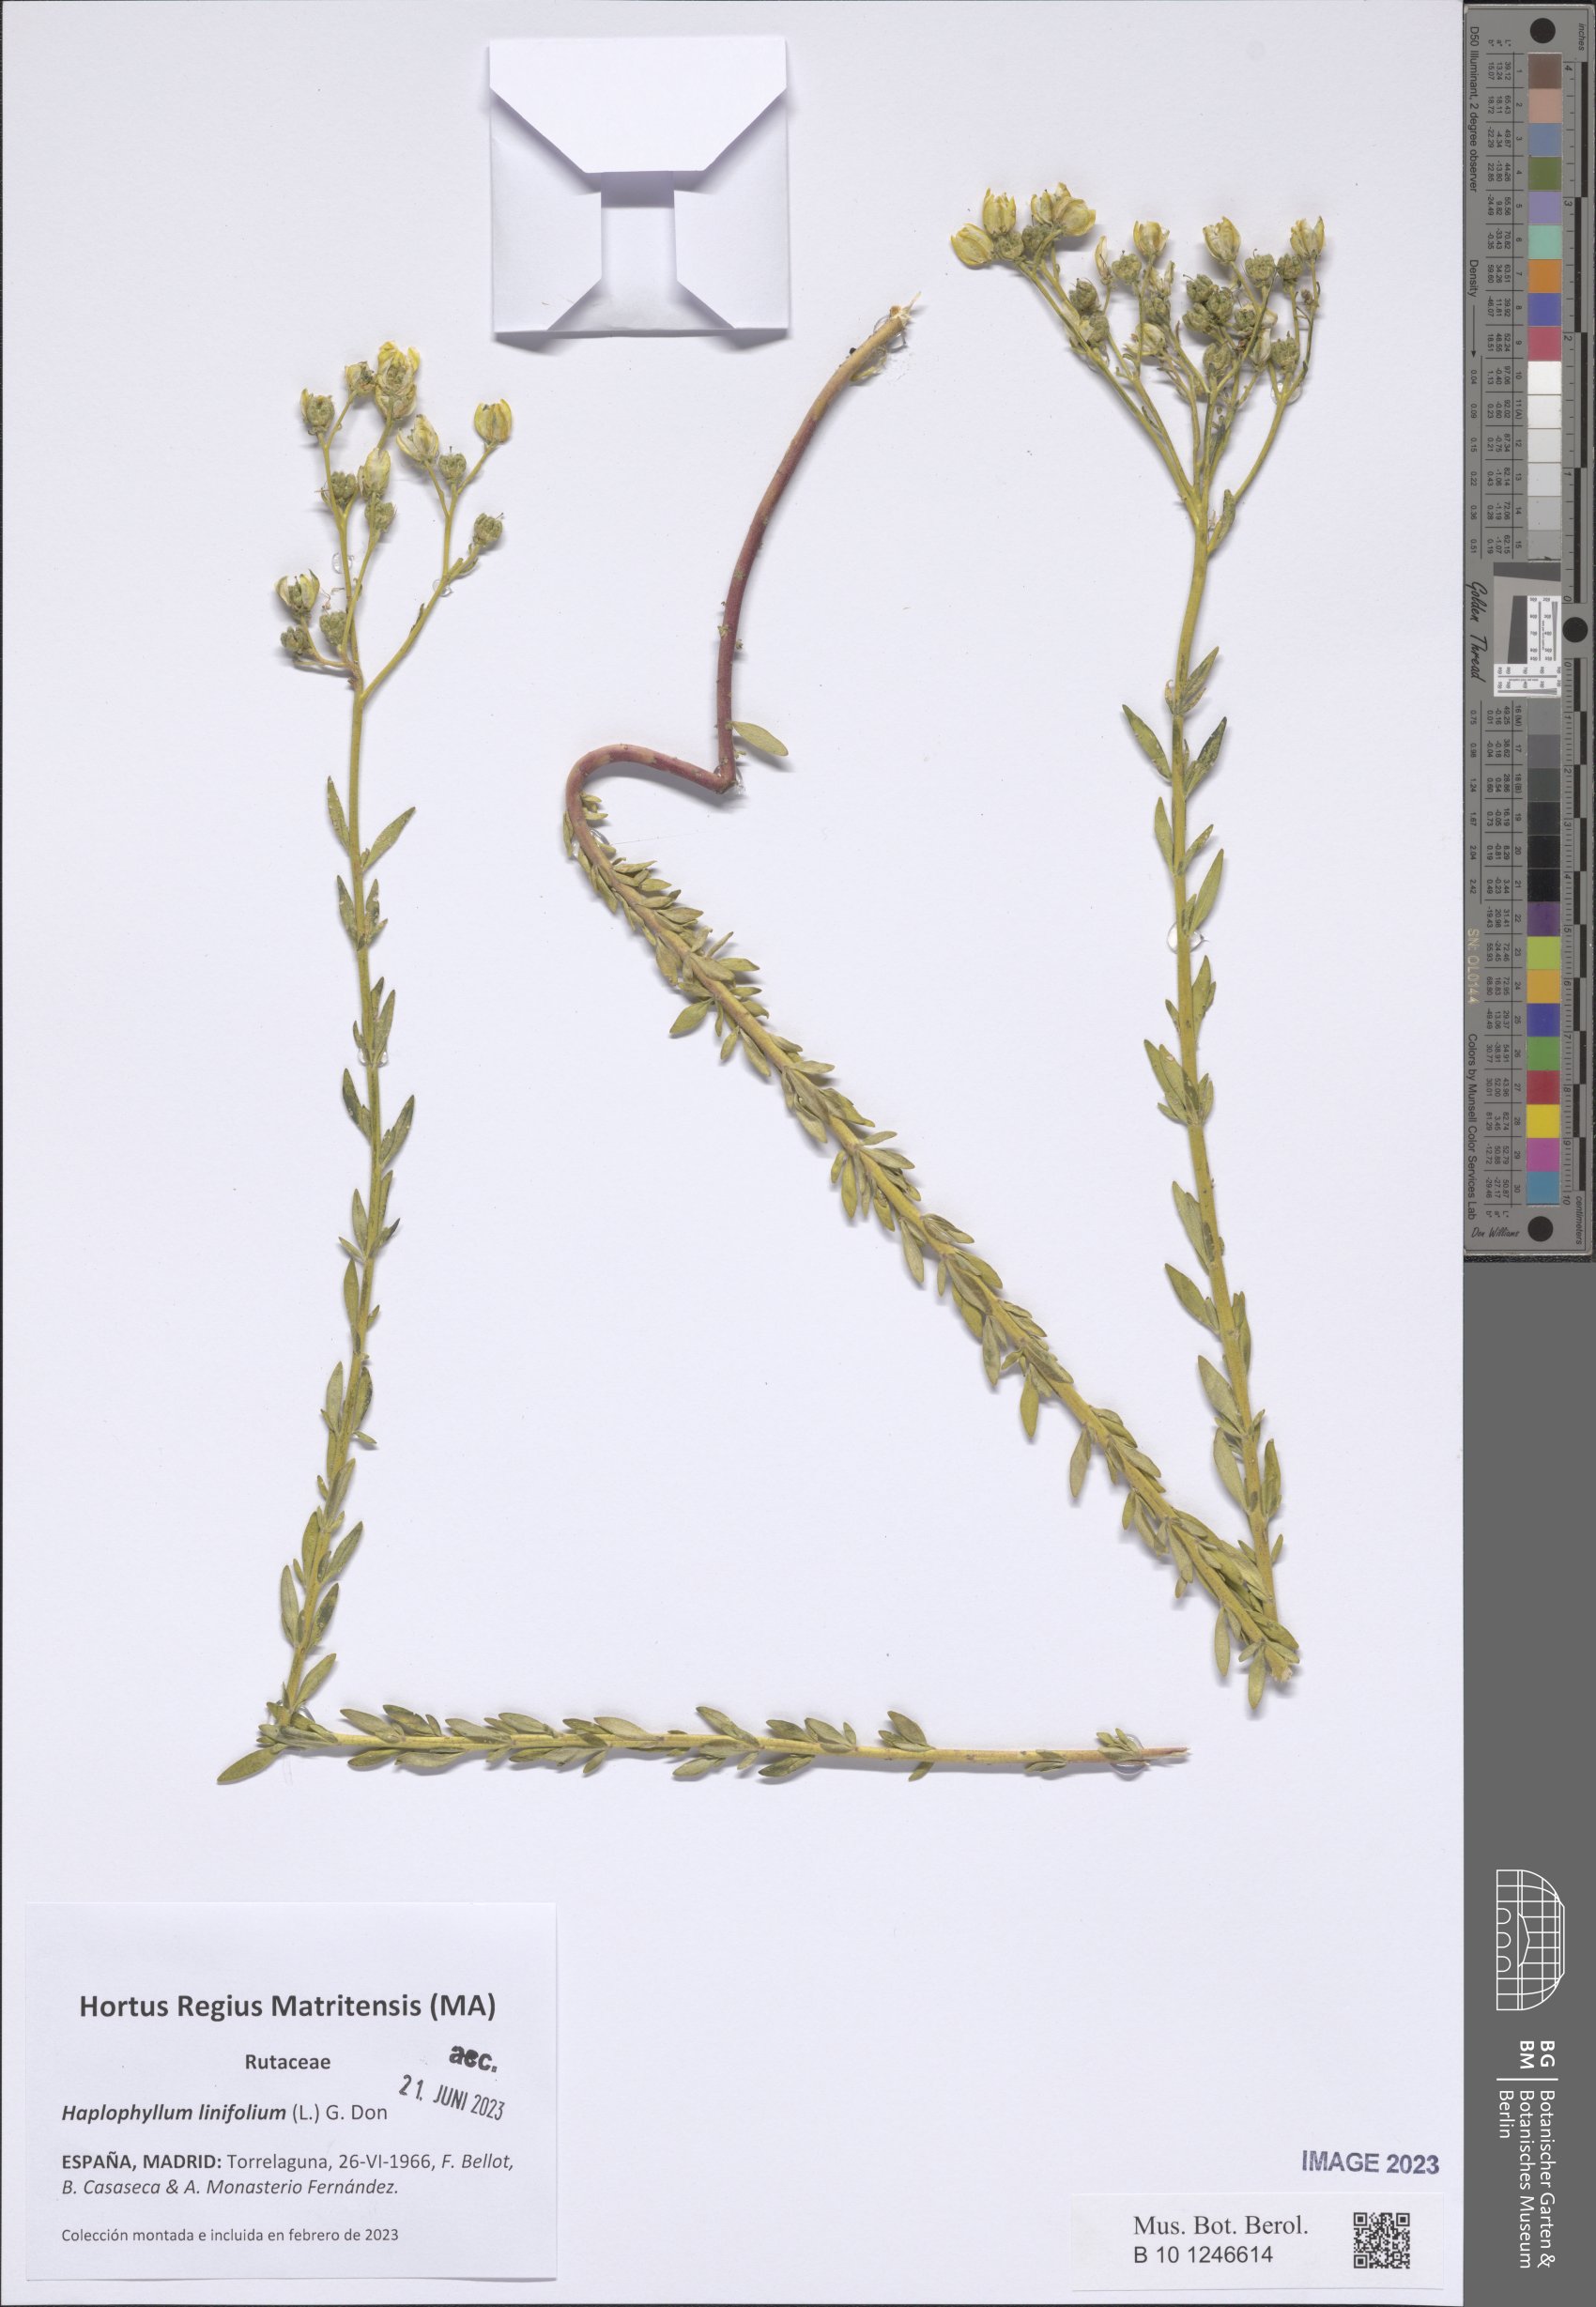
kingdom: Plantae
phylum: Tracheophyta
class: Magnoliopsida
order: Sapindales
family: Rutaceae
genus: Haplophyllum
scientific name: Haplophyllum linifolium
